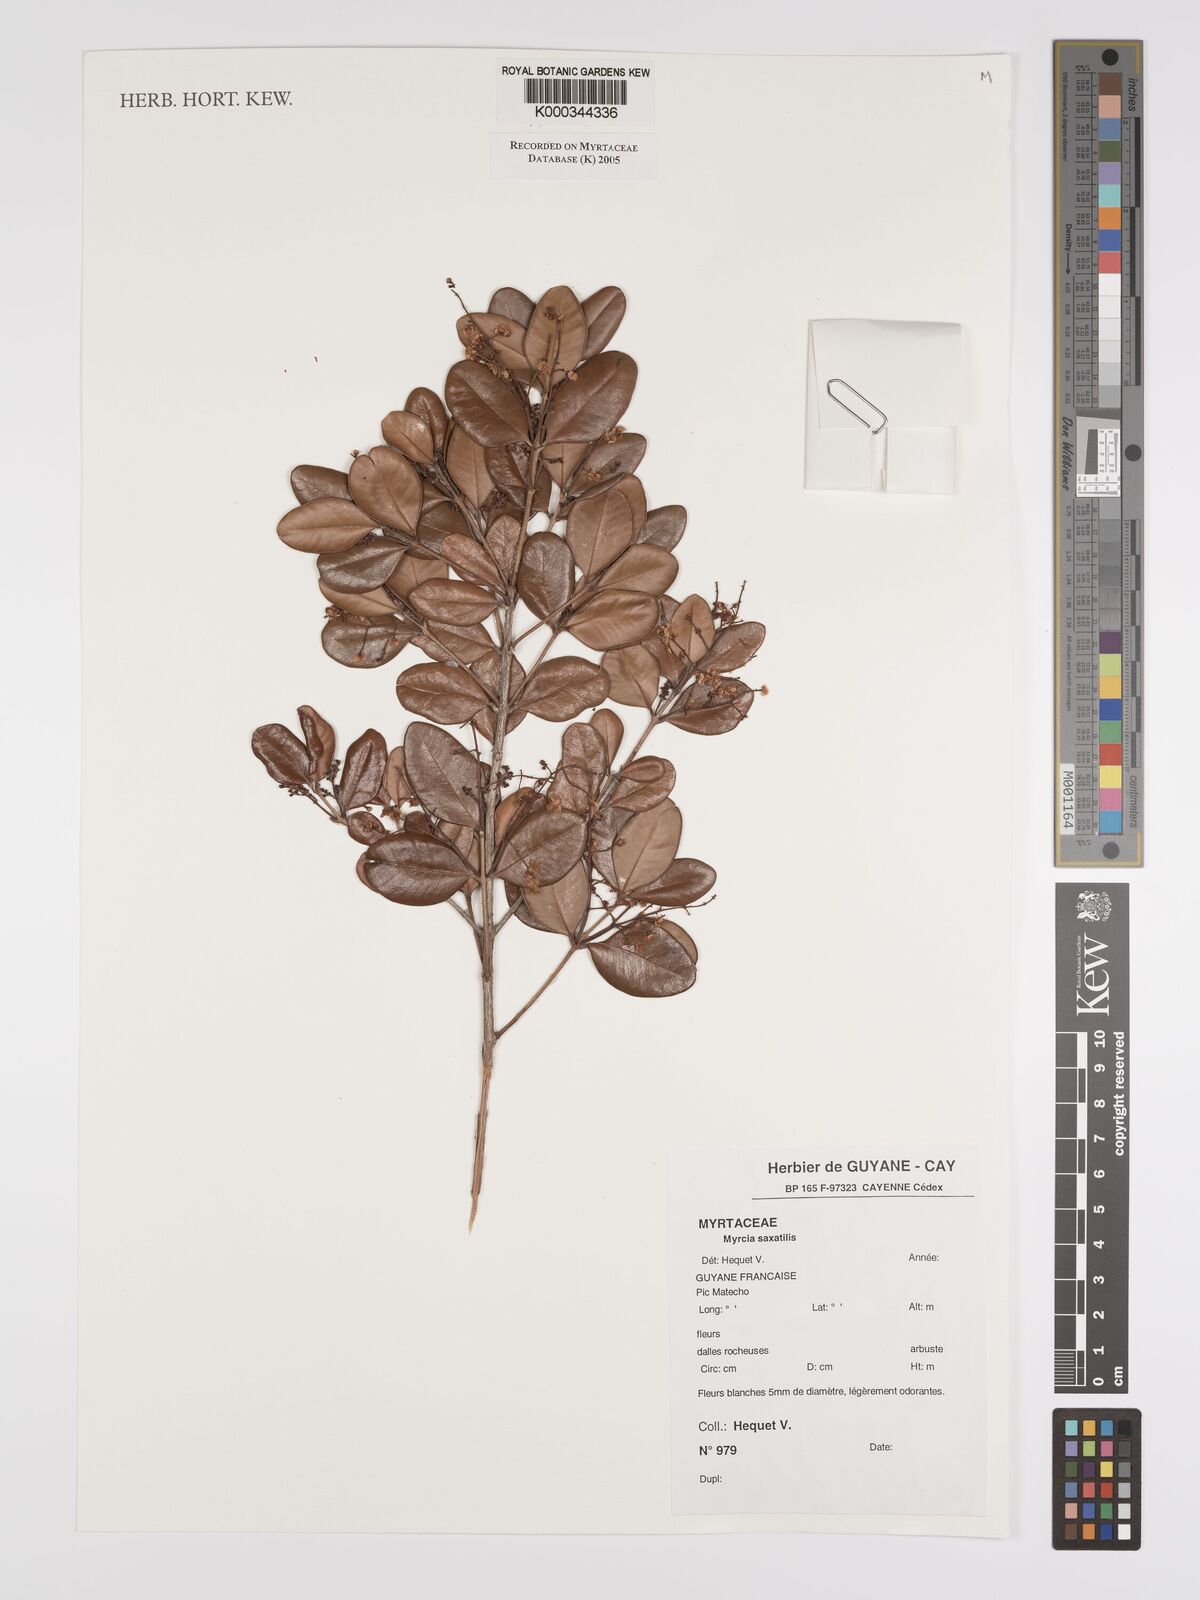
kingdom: Plantae
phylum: Tracheophyta
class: Magnoliopsida
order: Myrtales
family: Myrtaceae
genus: Myrcia
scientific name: Myrcia saxatilis
